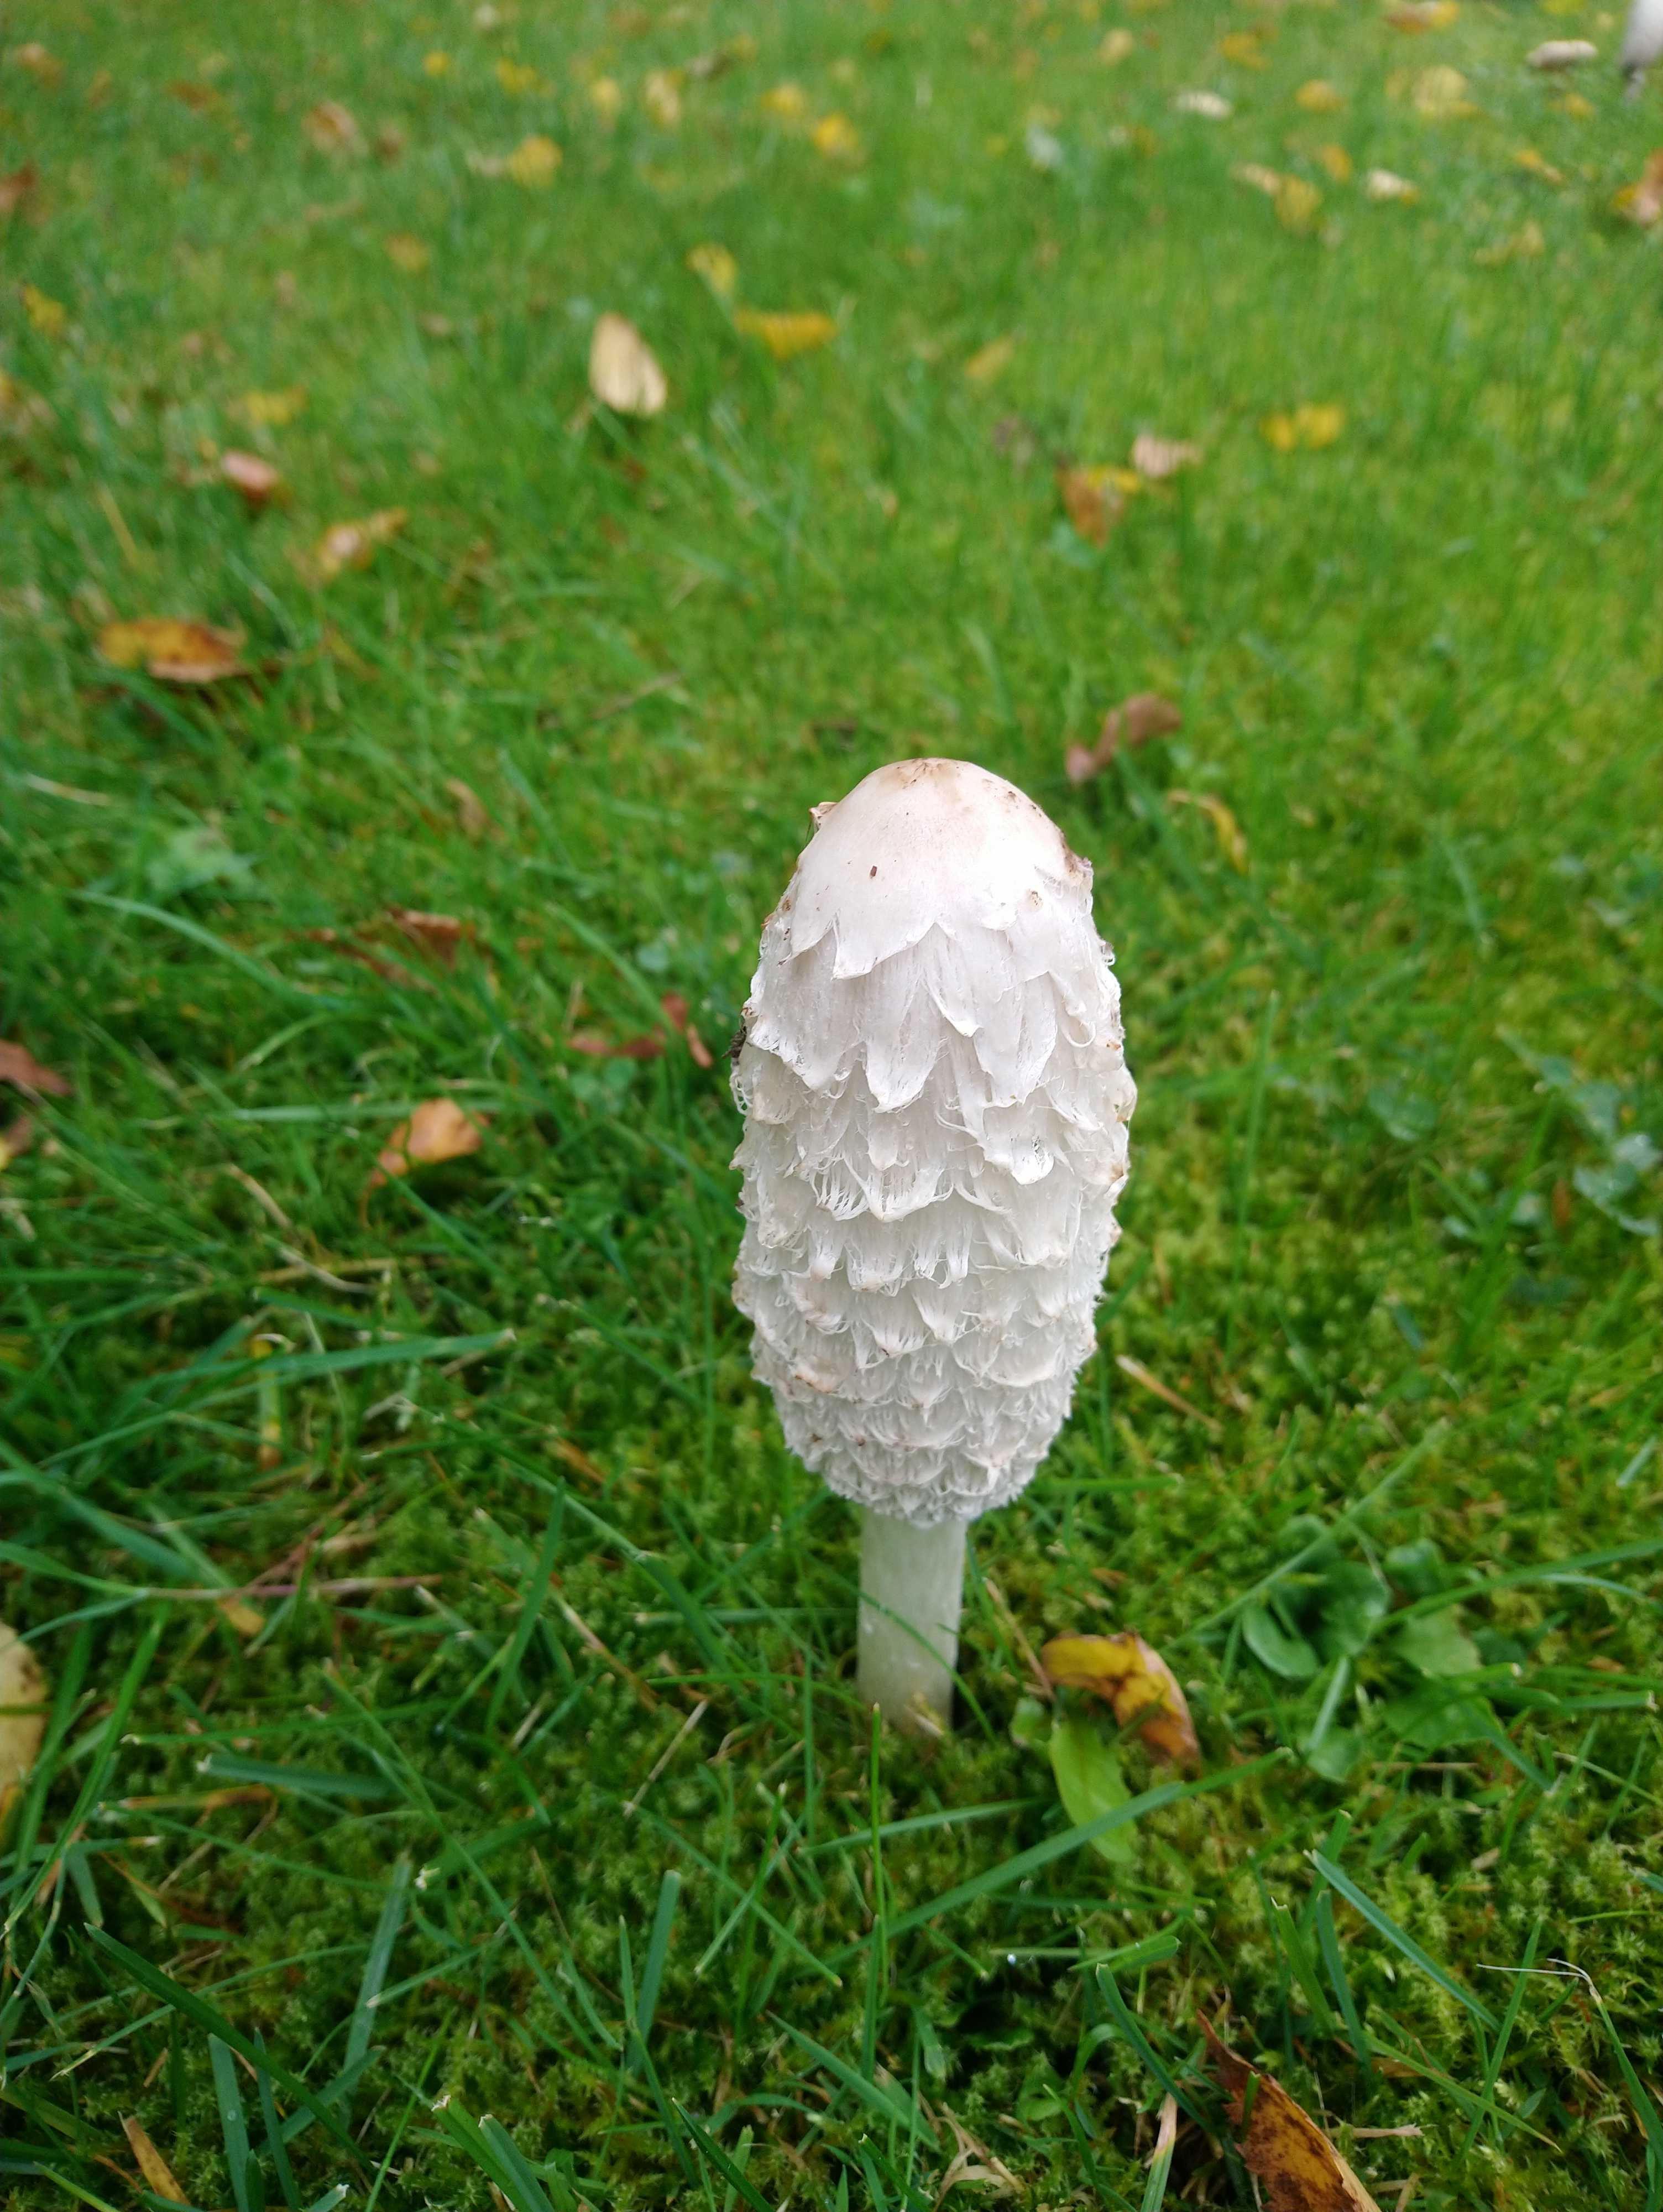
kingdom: Fungi
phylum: Basidiomycota
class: Agaricomycetes
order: Agaricales
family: Agaricaceae
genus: Coprinus
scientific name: Coprinus comatus
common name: stor parykhat
